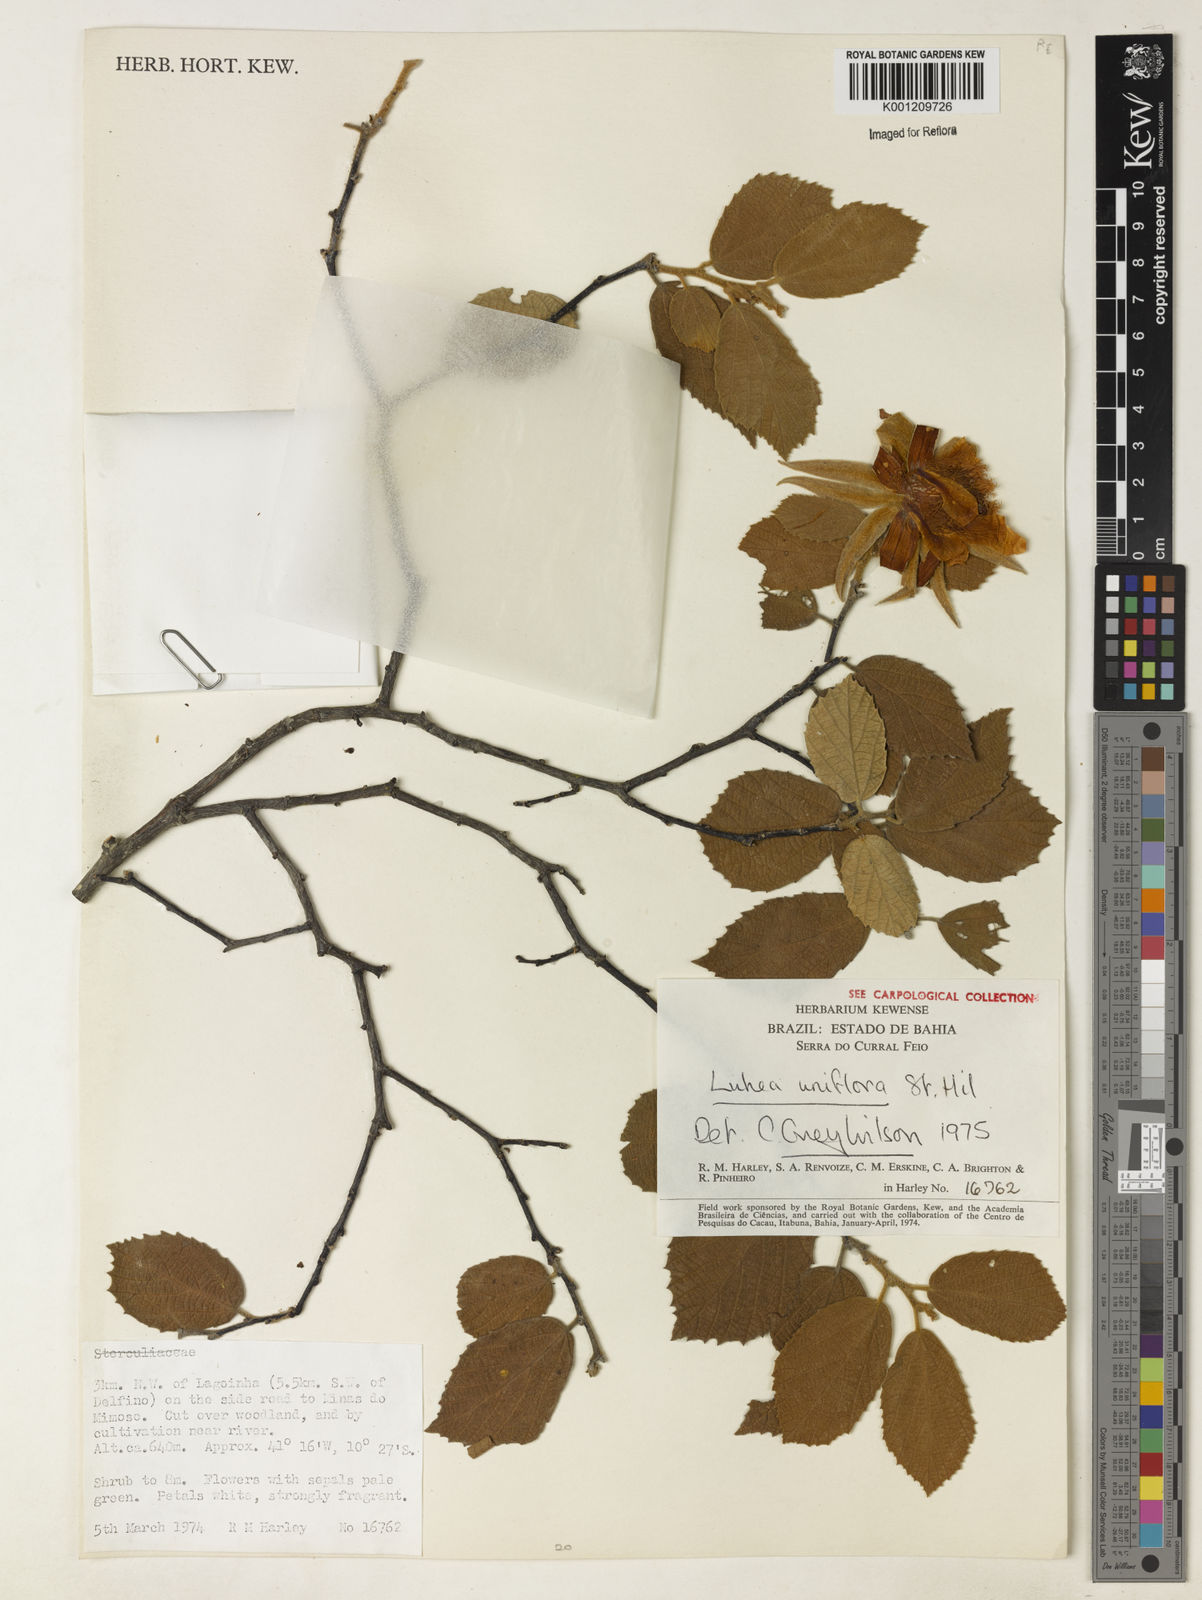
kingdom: Plantae
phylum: Tracheophyta
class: Magnoliopsida
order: Malvales
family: Malvaceae
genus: Luehea
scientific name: Luehea candicans
